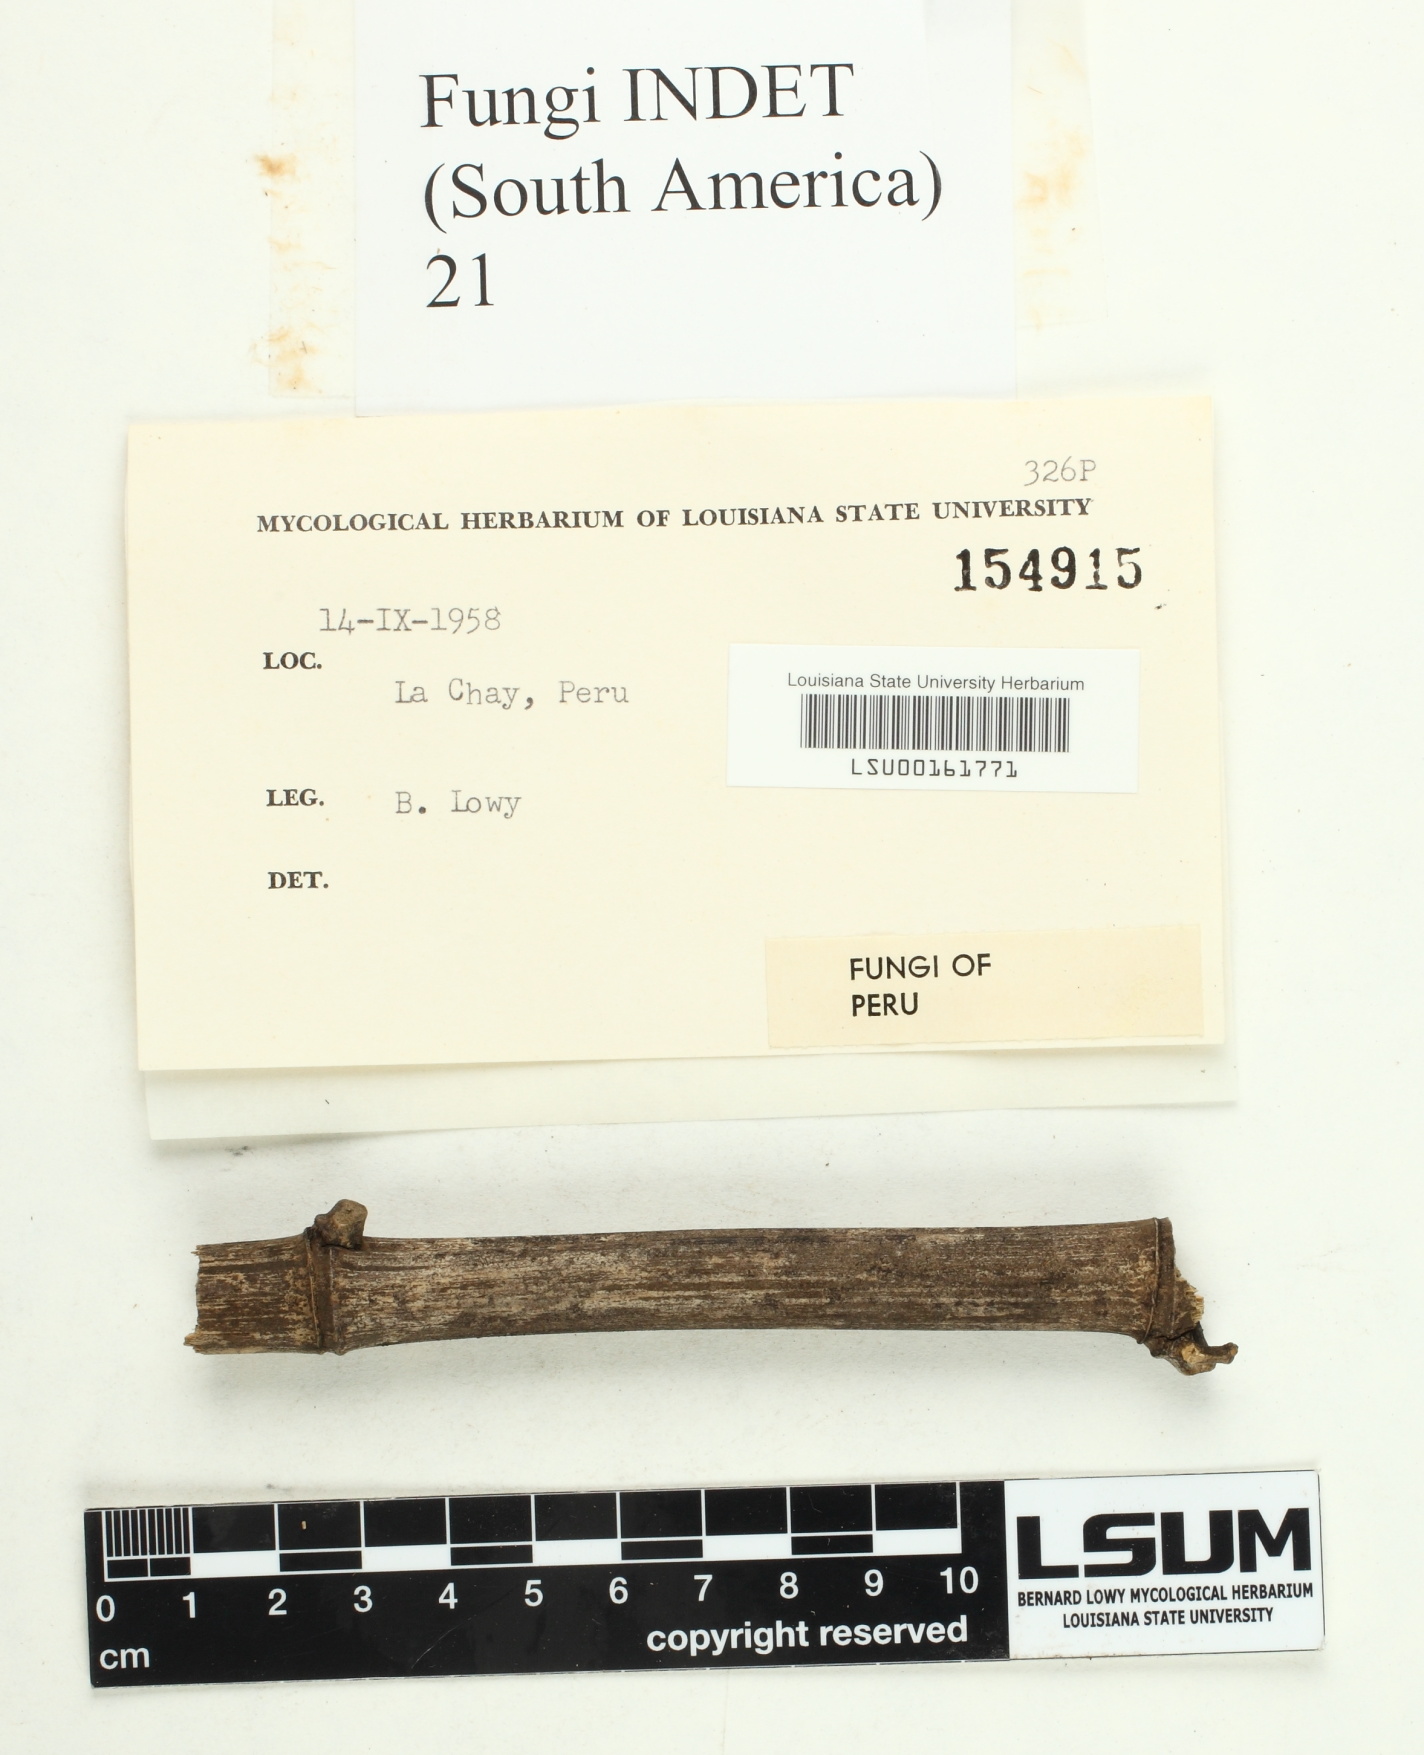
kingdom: Fungi
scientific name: Fungi
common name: Fungi
